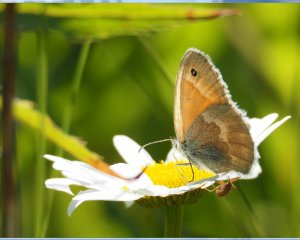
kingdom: Animalia
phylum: Arthropoda
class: Insecta
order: Lepidoptera
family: Nymphalidae
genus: Coenonympha
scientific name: Coenonympha tullia
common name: Large Heath
